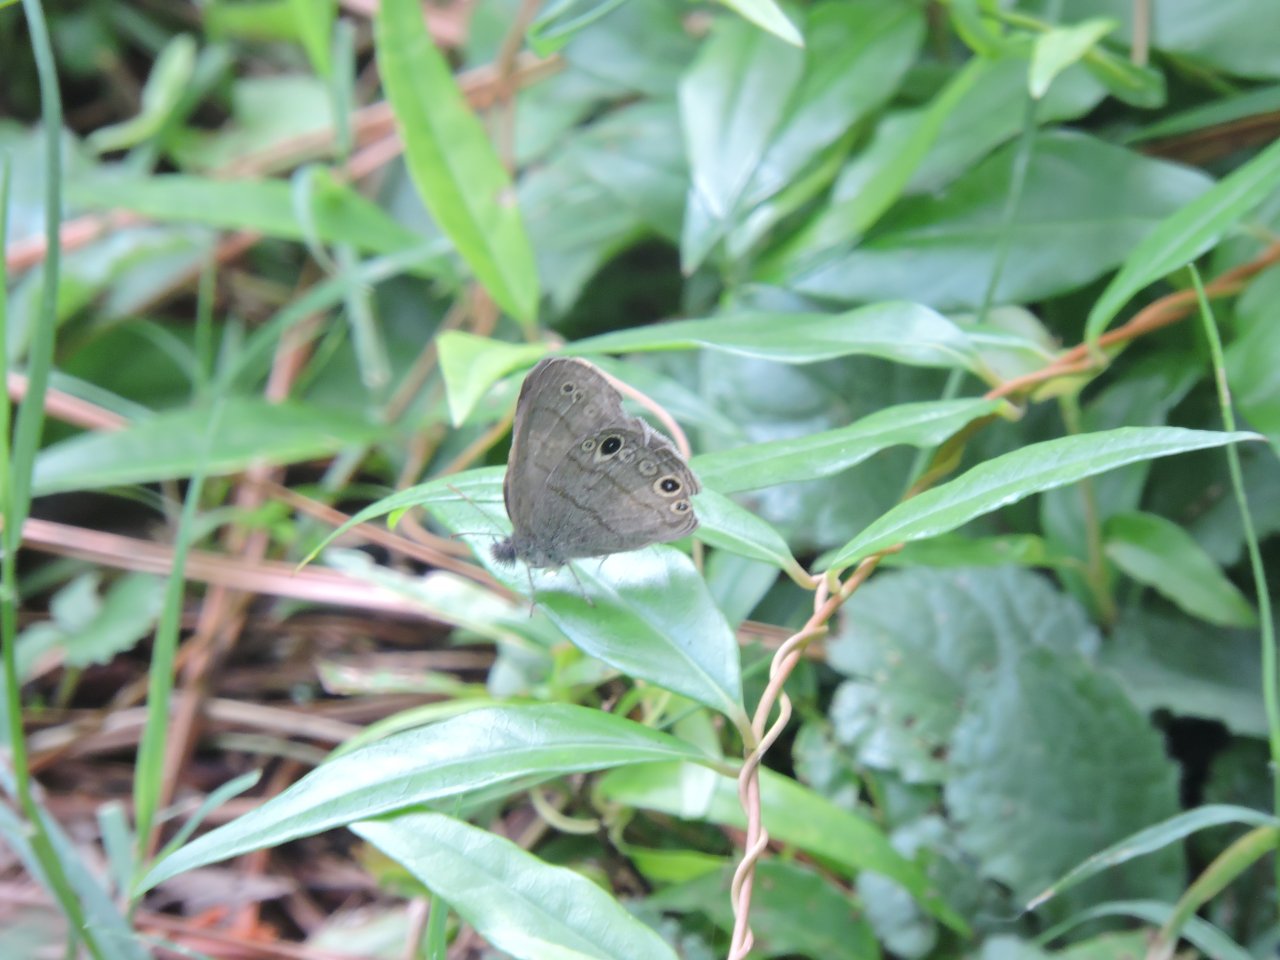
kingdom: Animalia
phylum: Arthropoda
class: Insecta
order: Lepidoptera
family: Nymphalidae
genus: Hermeuptychia
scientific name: Hermeuptychia hermes
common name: Carolina Satyr
